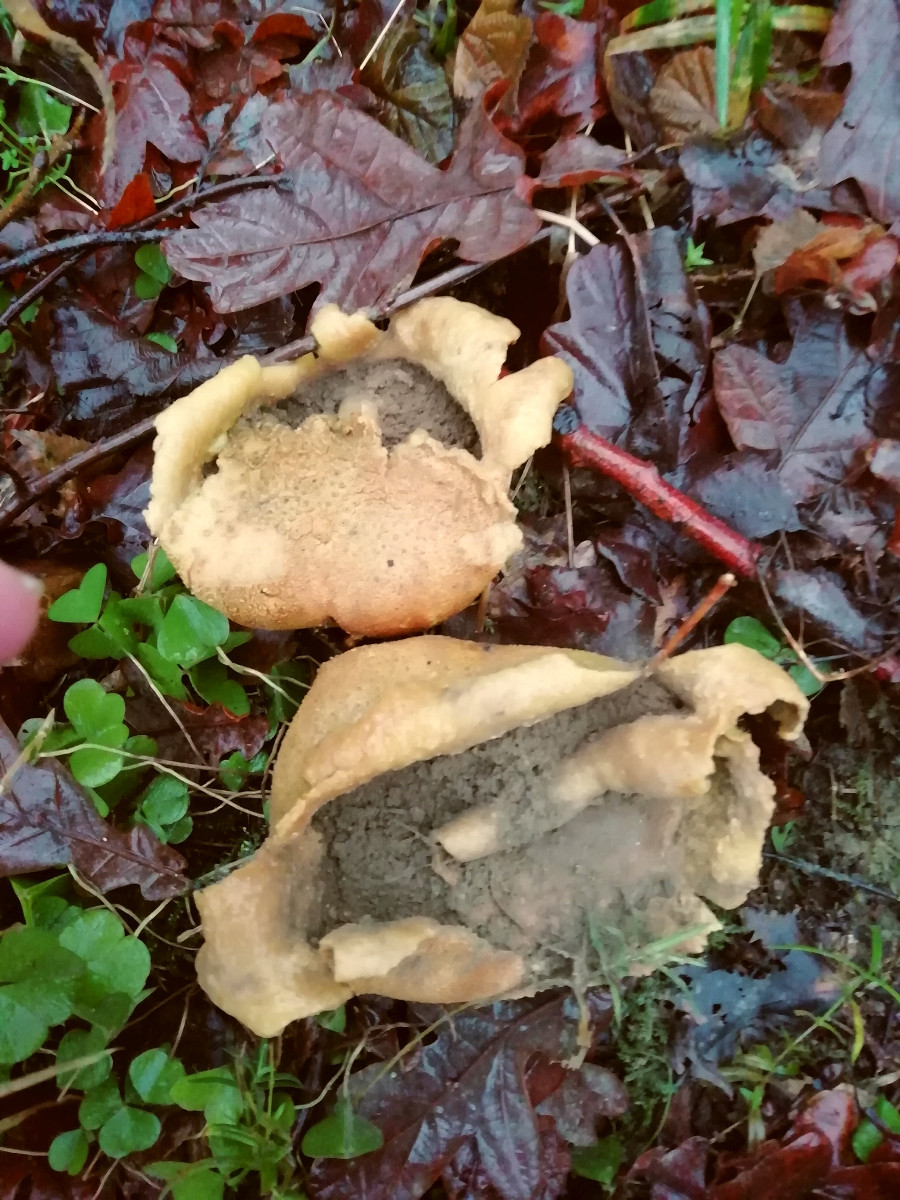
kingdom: Fungi
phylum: Basidiomycota
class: Agaricomycetes
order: Boletales
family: Sclerodermataceae
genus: Scleroderma
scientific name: Scleroderma citrinum
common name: almindelig bruskbold
